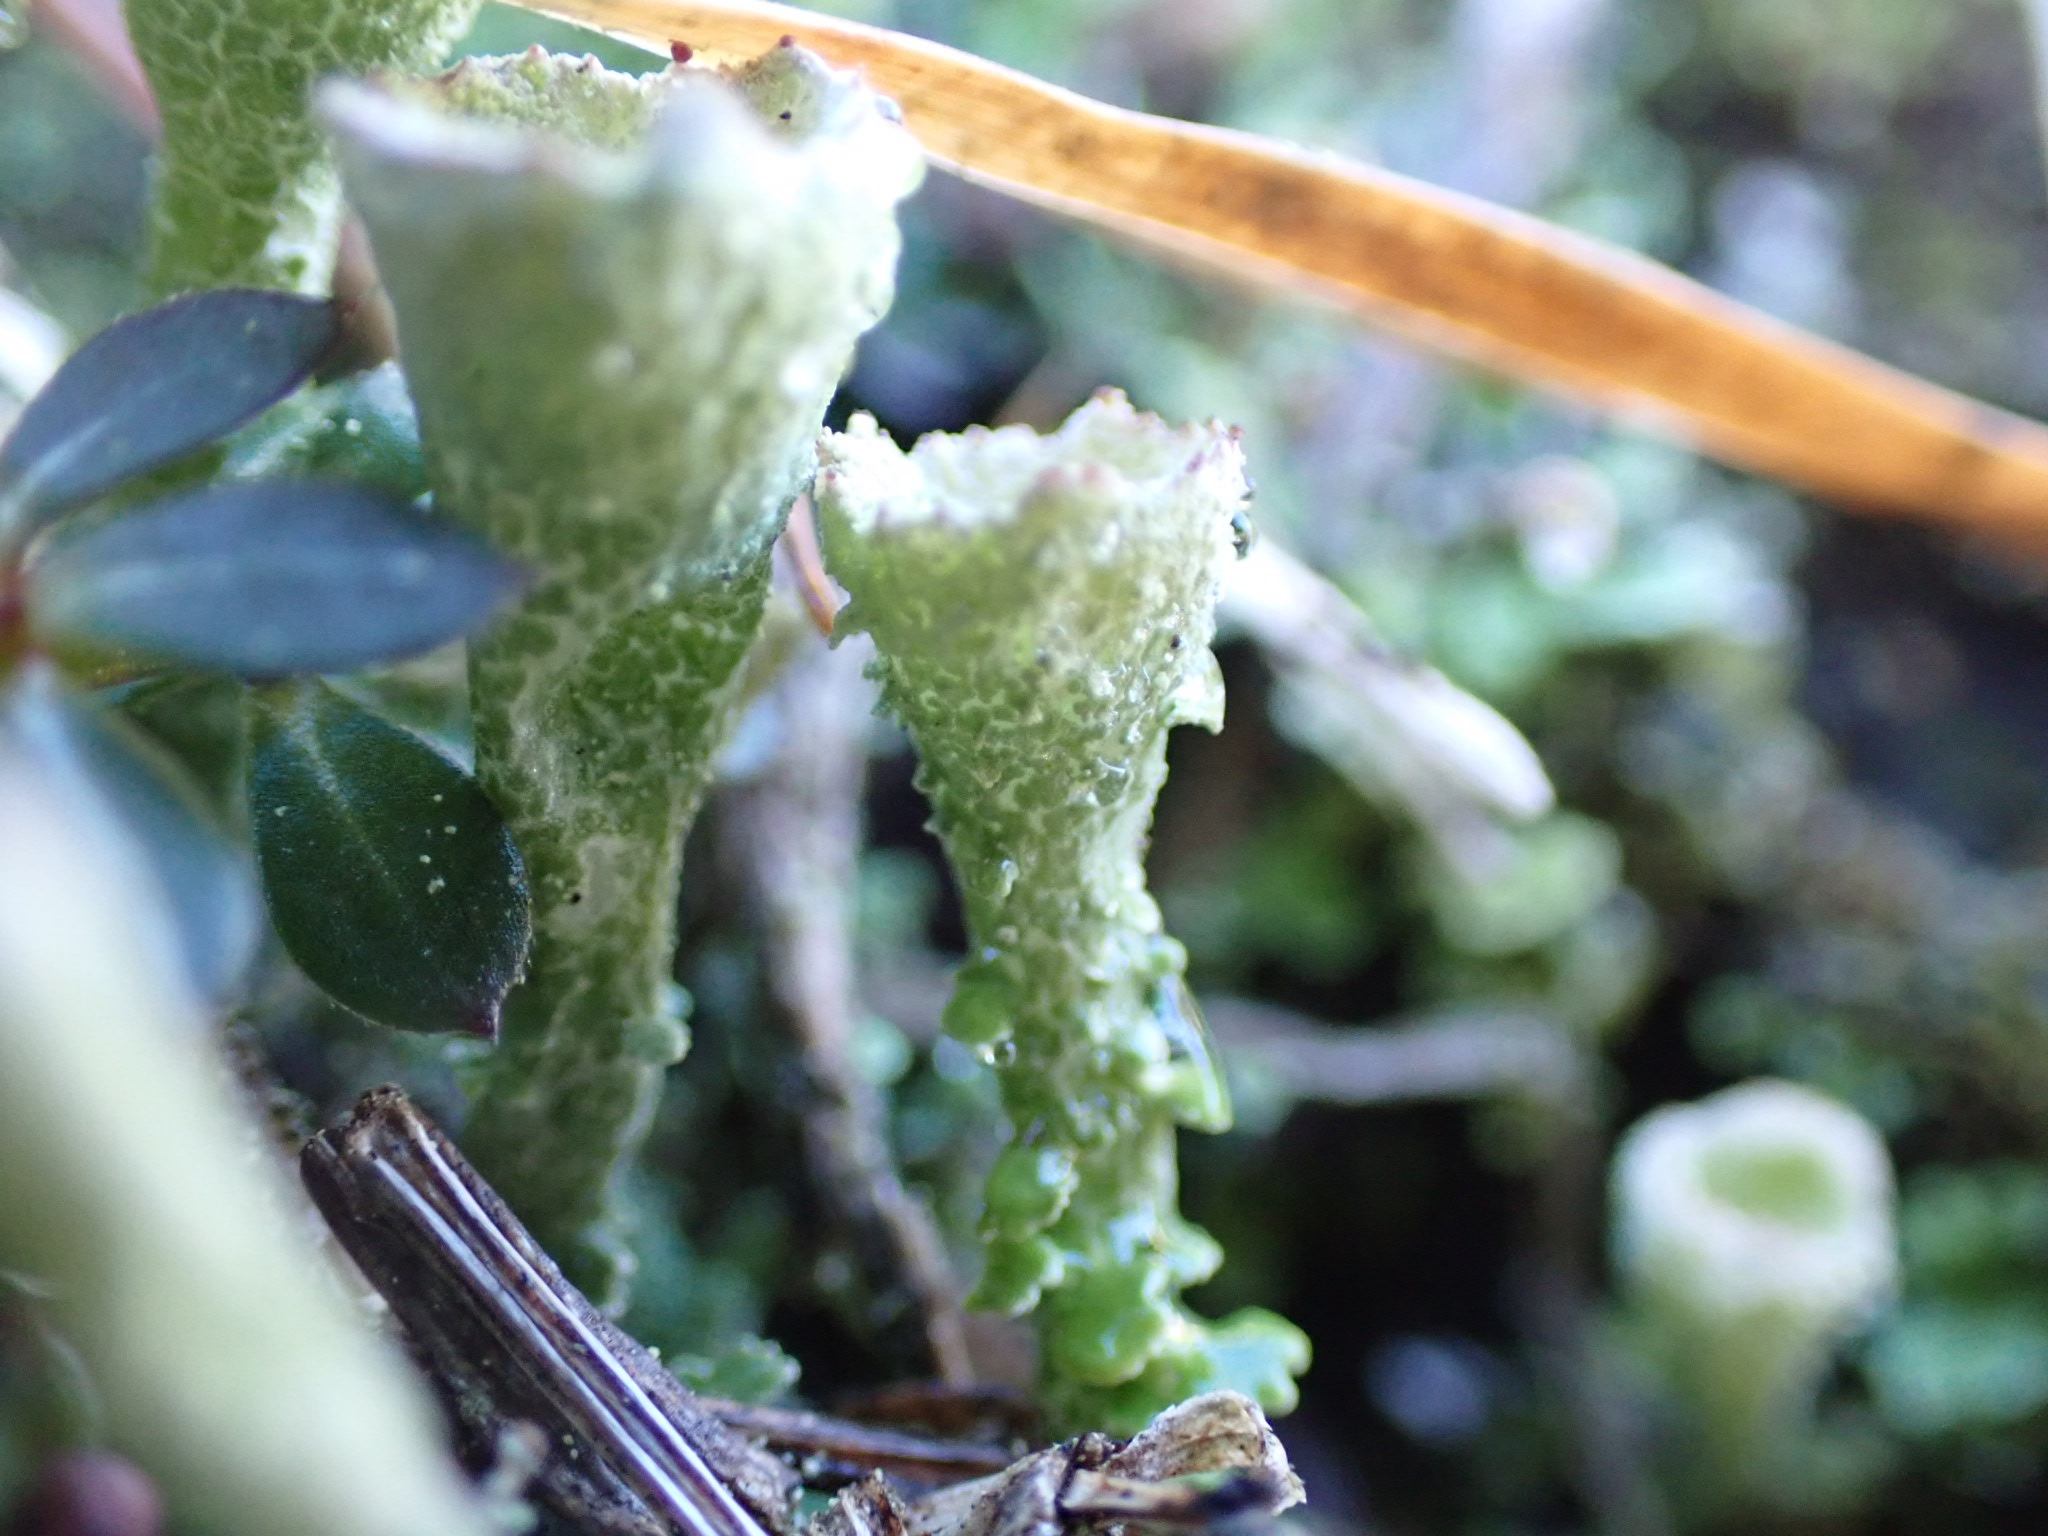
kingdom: Fungi
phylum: Ascomycota
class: Lecanoromycetes
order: Lecanorales
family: Cladoniaceae
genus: Cladonia
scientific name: Cladonia humilis
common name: lav bægerlav
